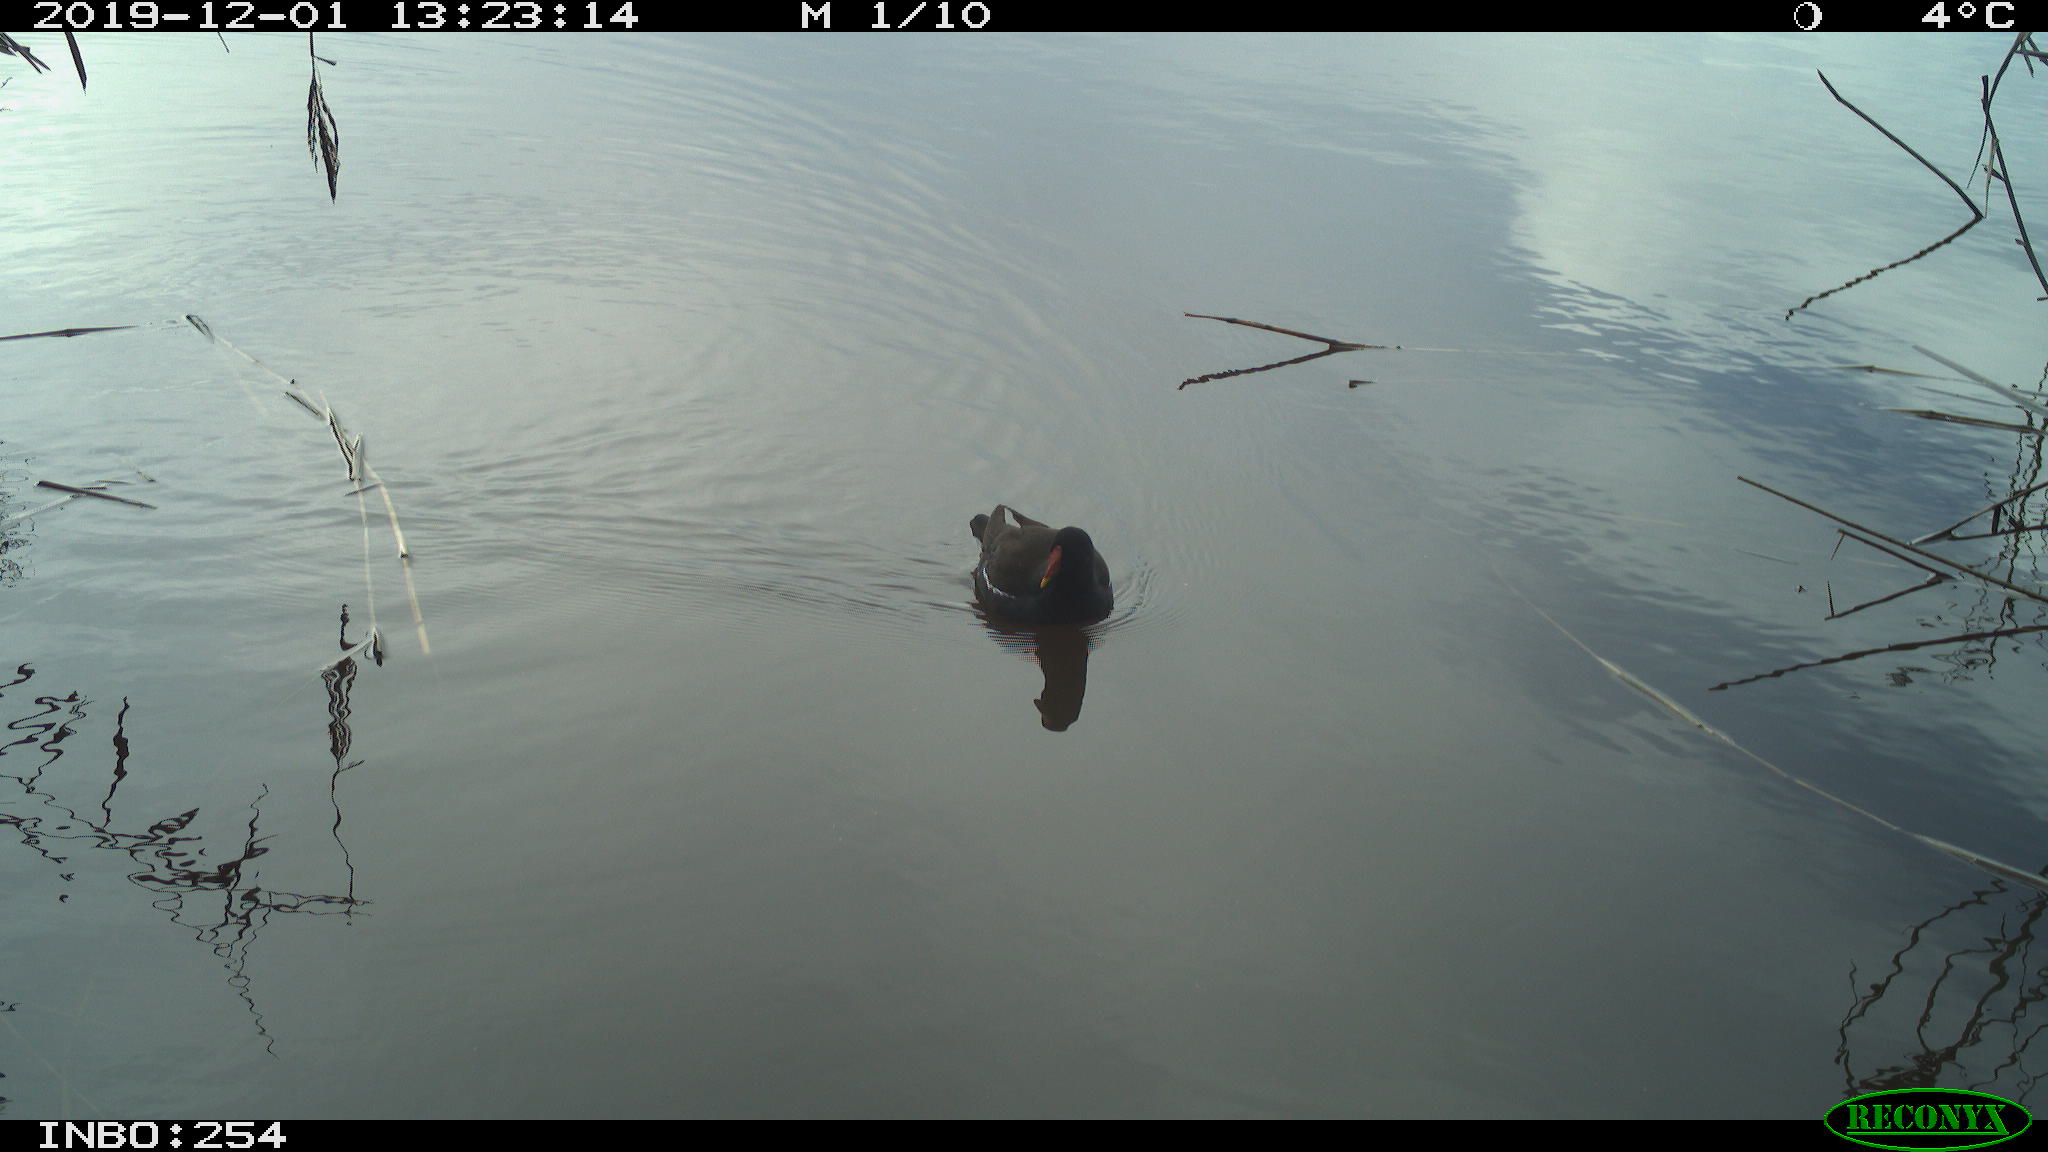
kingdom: Animalia
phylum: Chordata
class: Aves
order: Gruiformes
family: Rallidae
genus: Gallinula
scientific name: Gallinula chloropus
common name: Common moorhen
